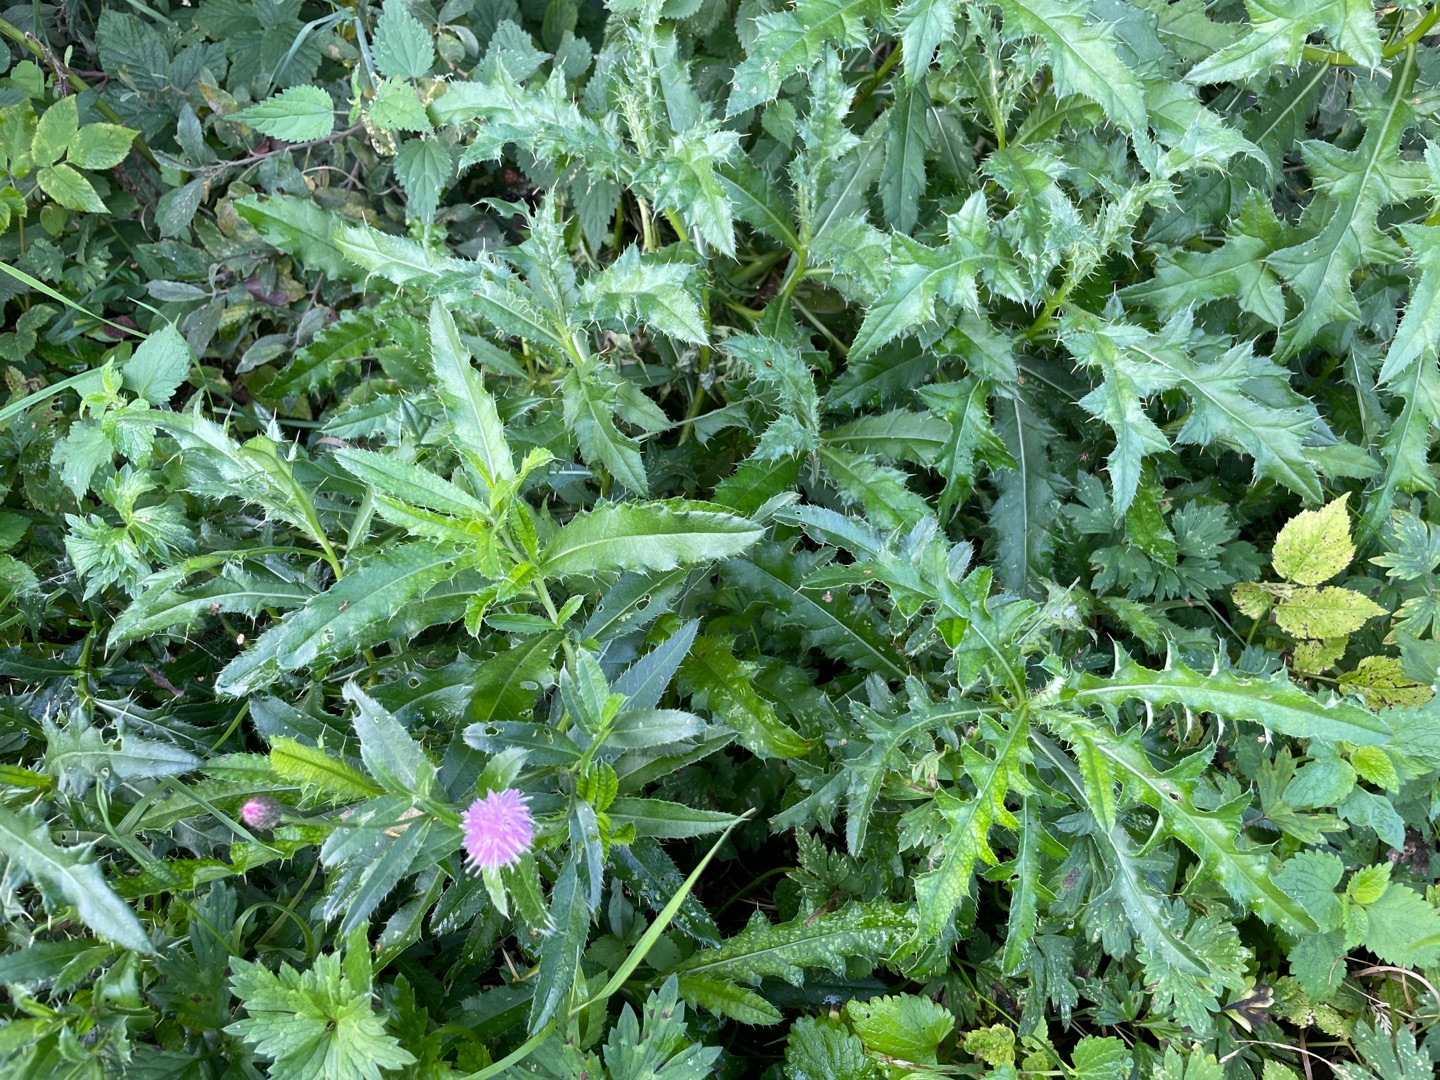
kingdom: Plantae
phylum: Tracheophyta
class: Magnoliopsida
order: Asterales
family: Asteraceae
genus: Cirsium
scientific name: Cirsium arvense
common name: Ager-tidsel
